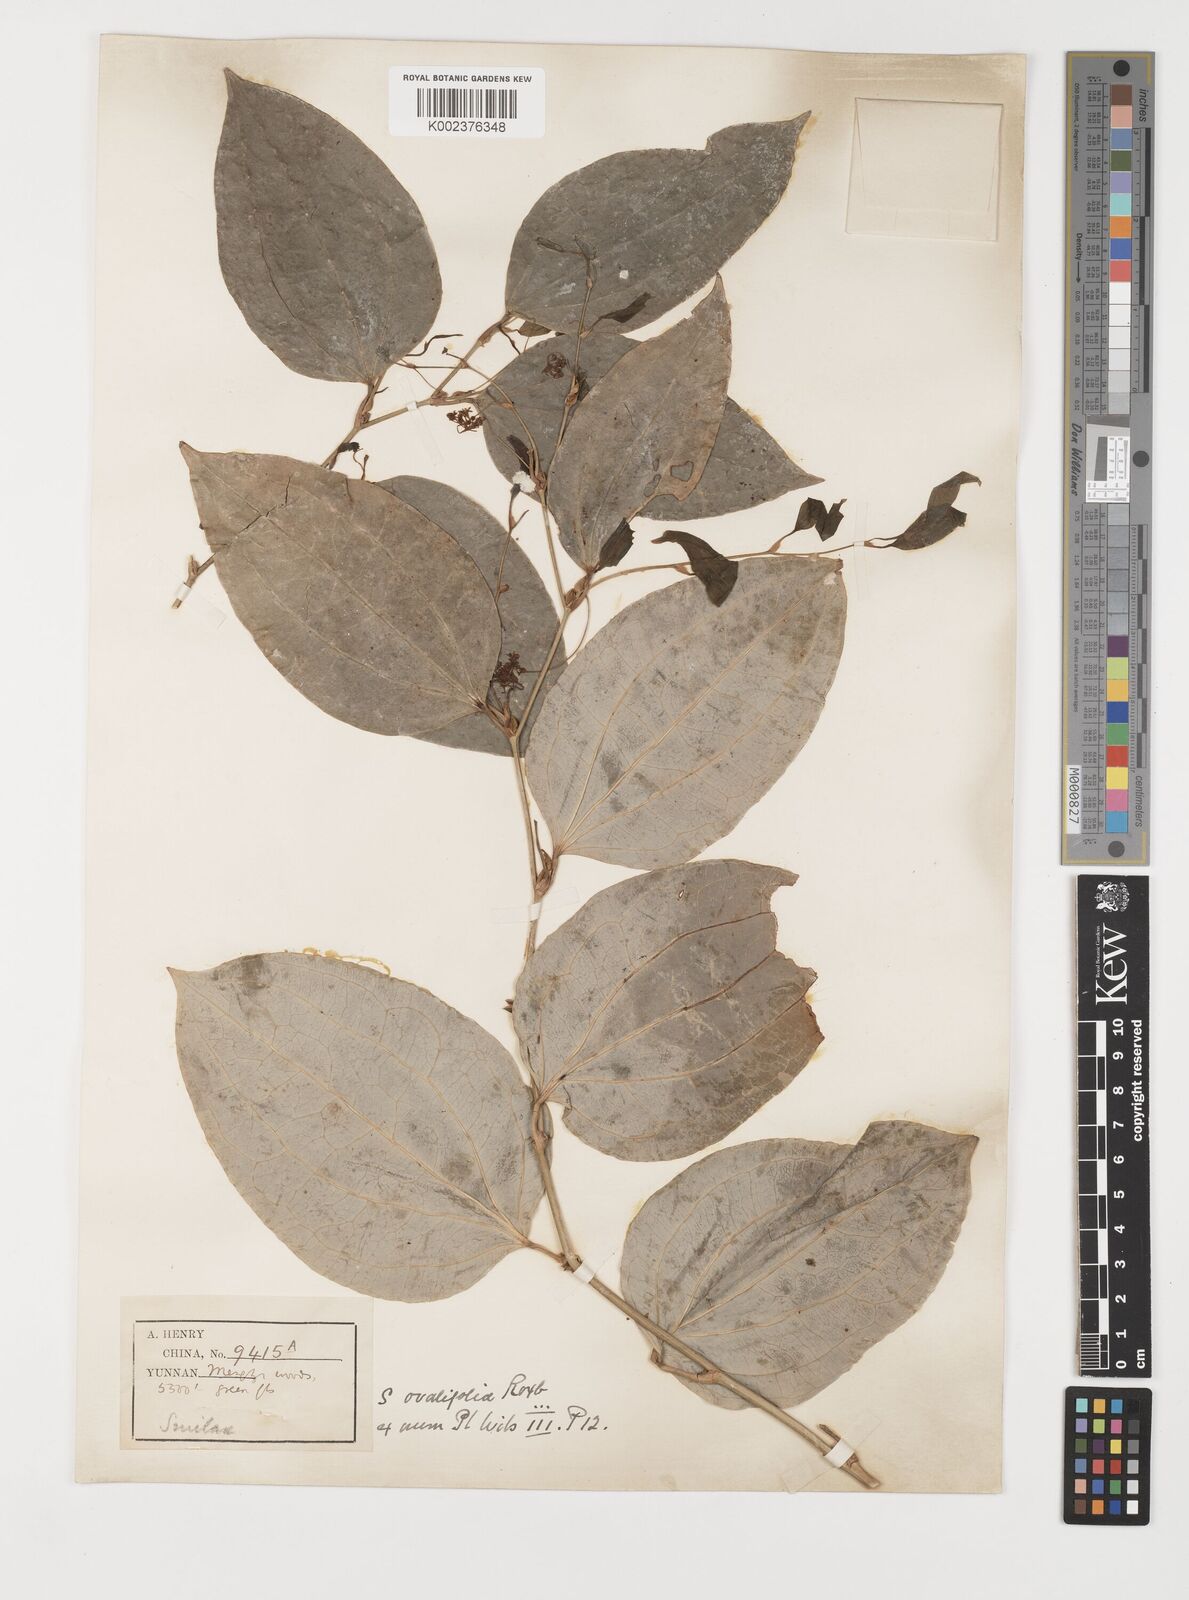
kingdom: Plantae
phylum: Tracheophyta
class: Liliopsida
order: Liliales
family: Smilacaceae
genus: Smilax
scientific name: Smilax aberrans
